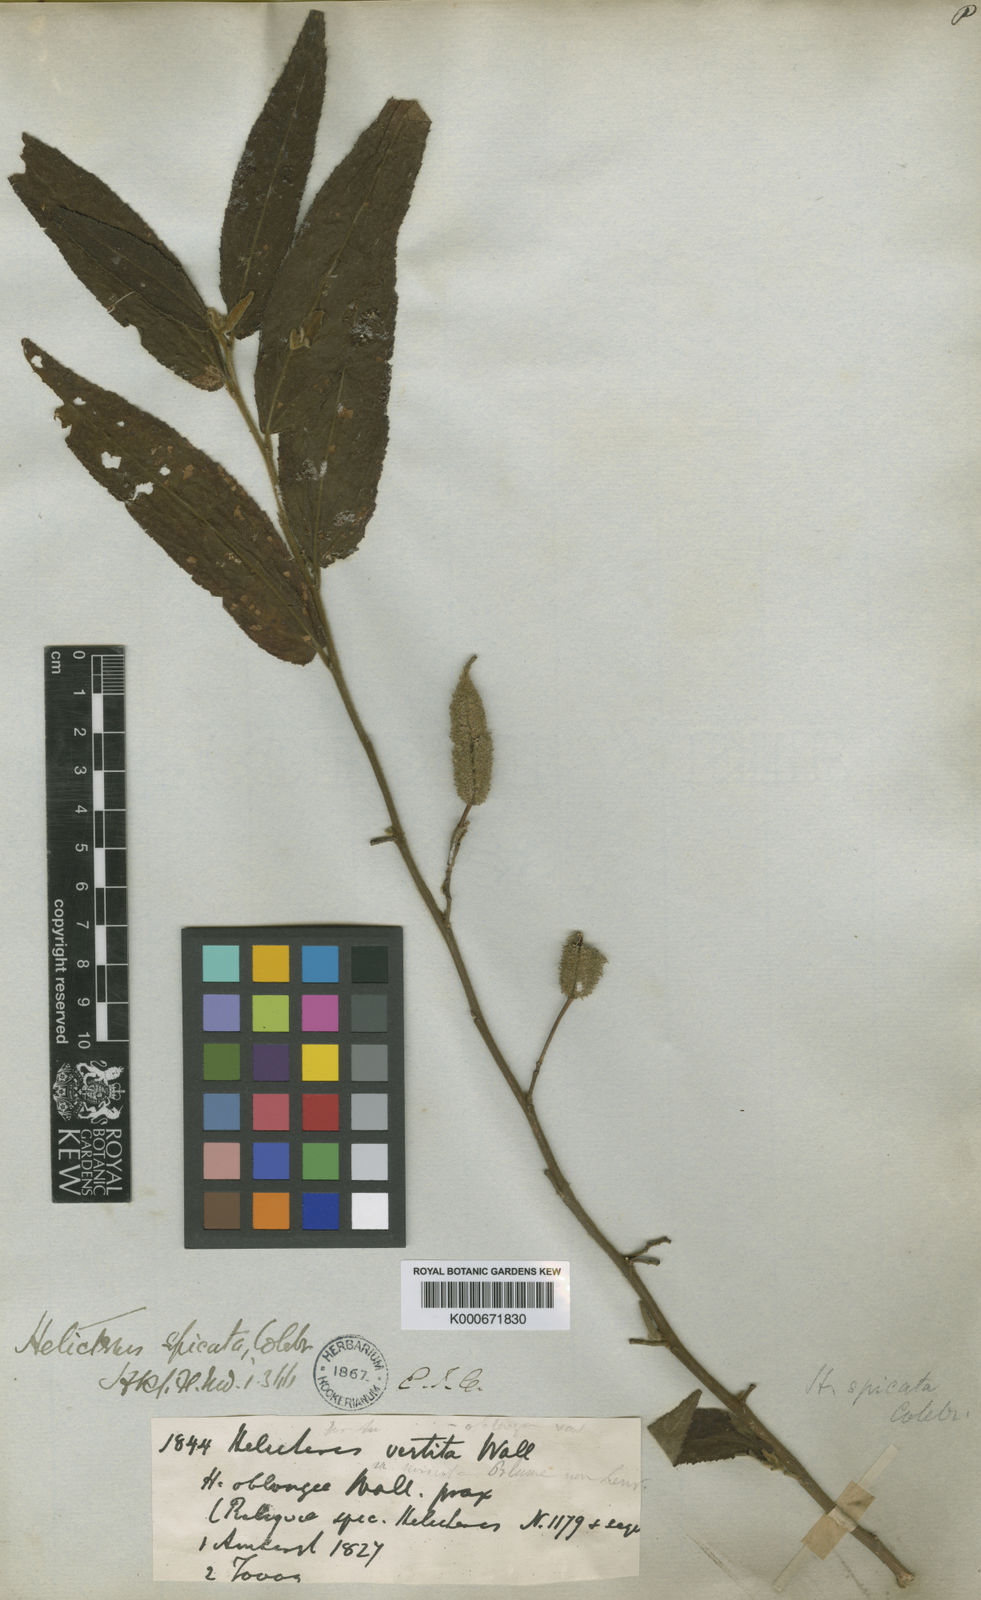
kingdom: Plantae
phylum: Tracheophyta
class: Magnoliopsida
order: Malvales
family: Malvaceae
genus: Helicteres
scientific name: Helicteres
